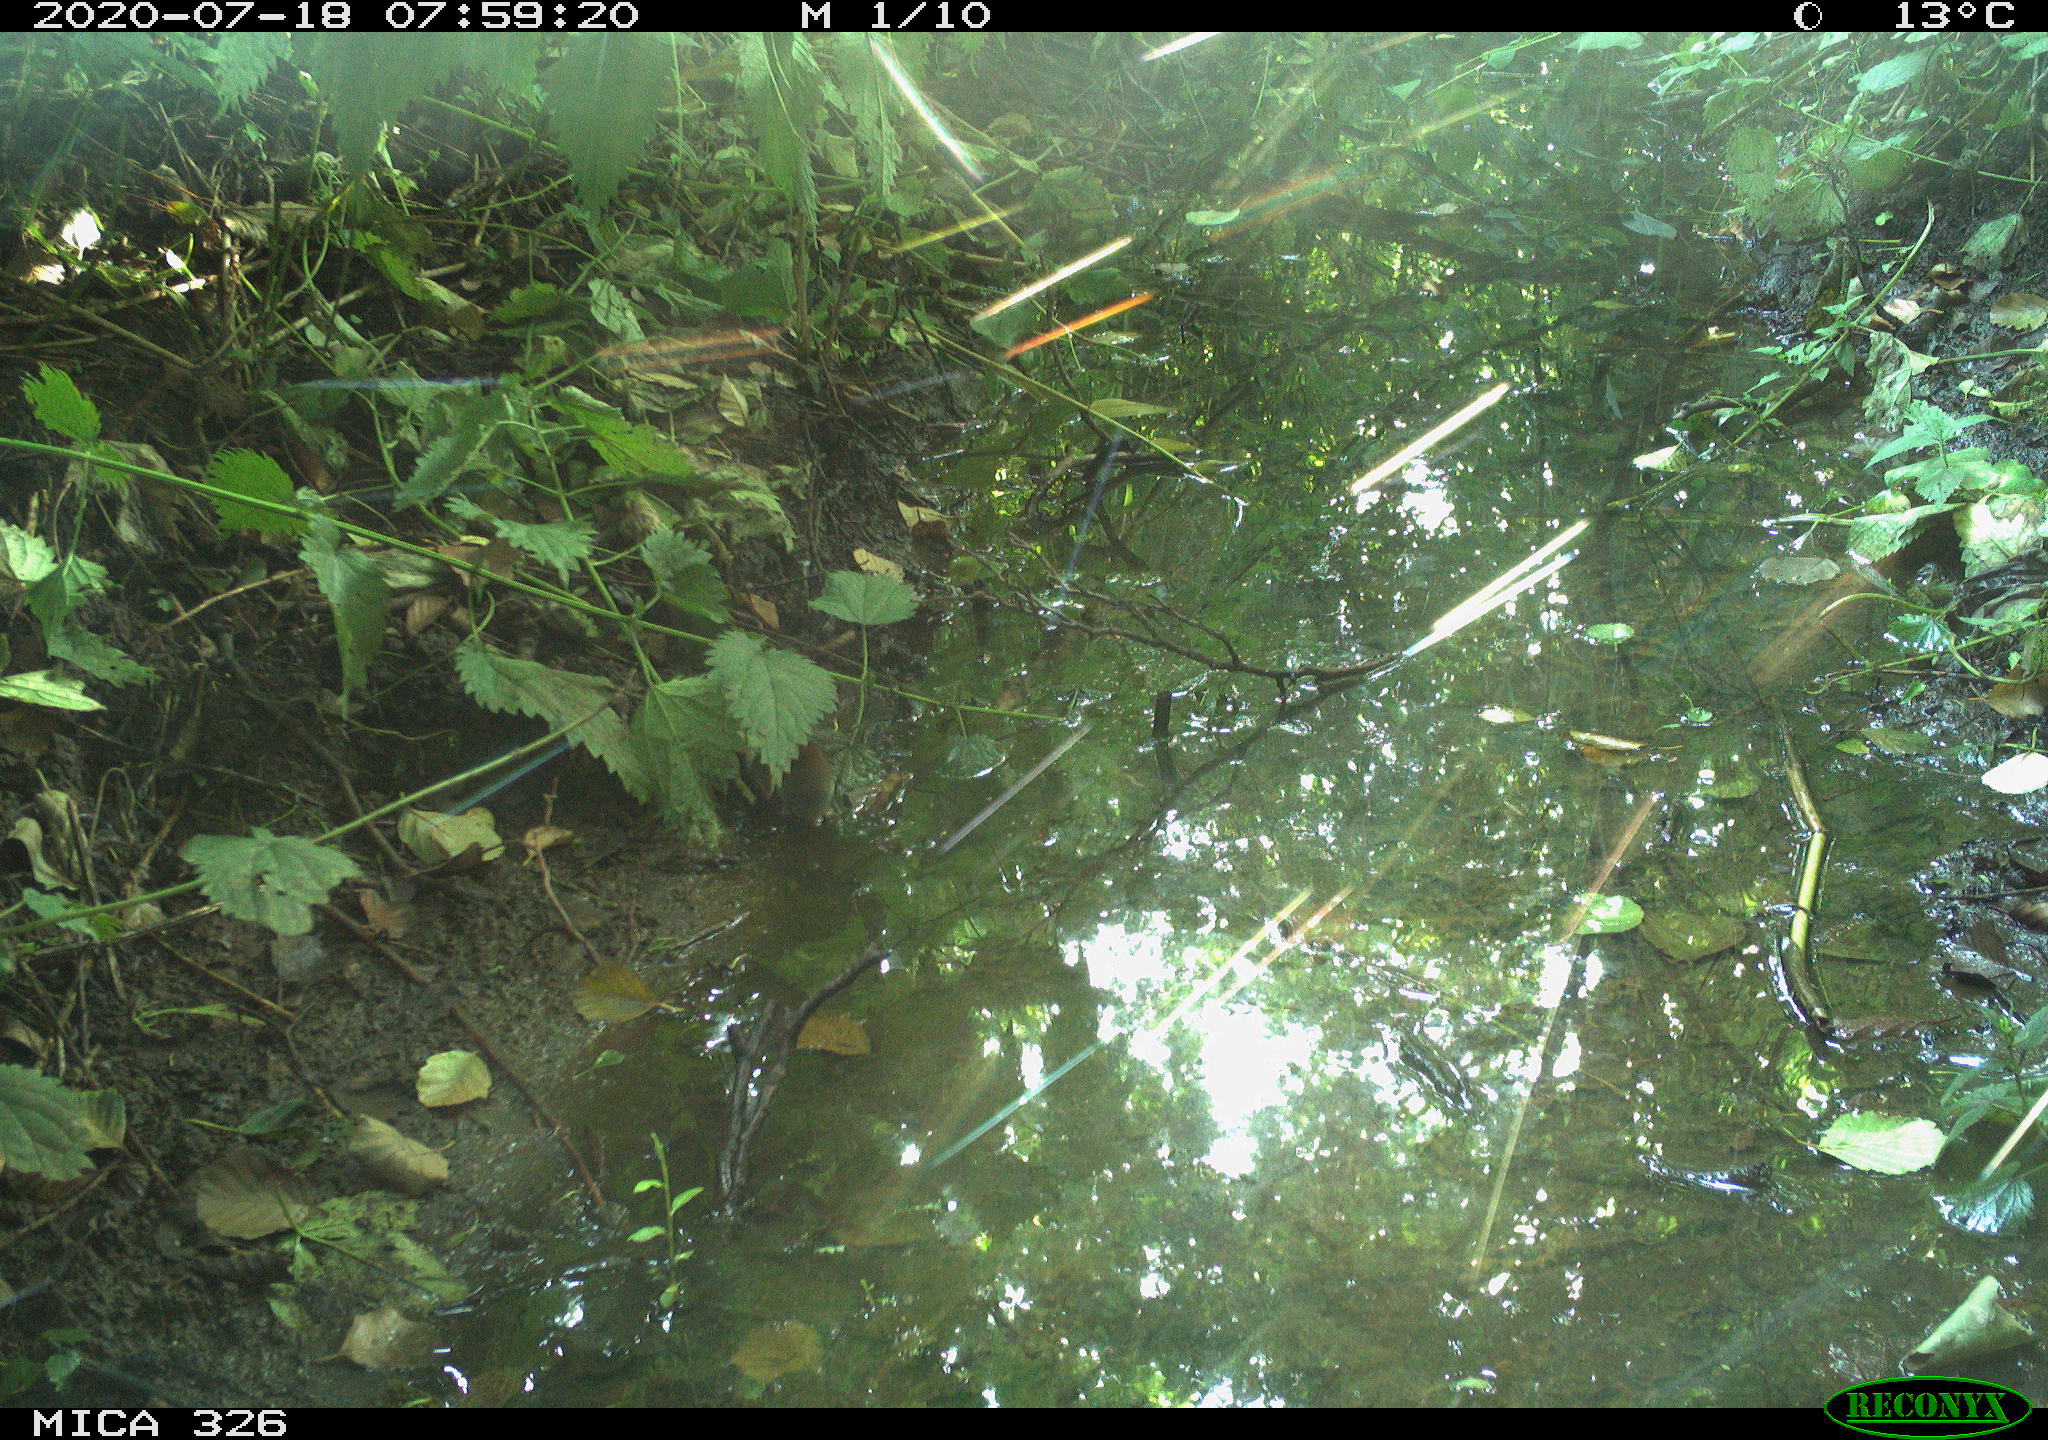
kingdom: Animalia
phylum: Chordata
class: Mammalia
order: Rodentia
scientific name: Rodentia
